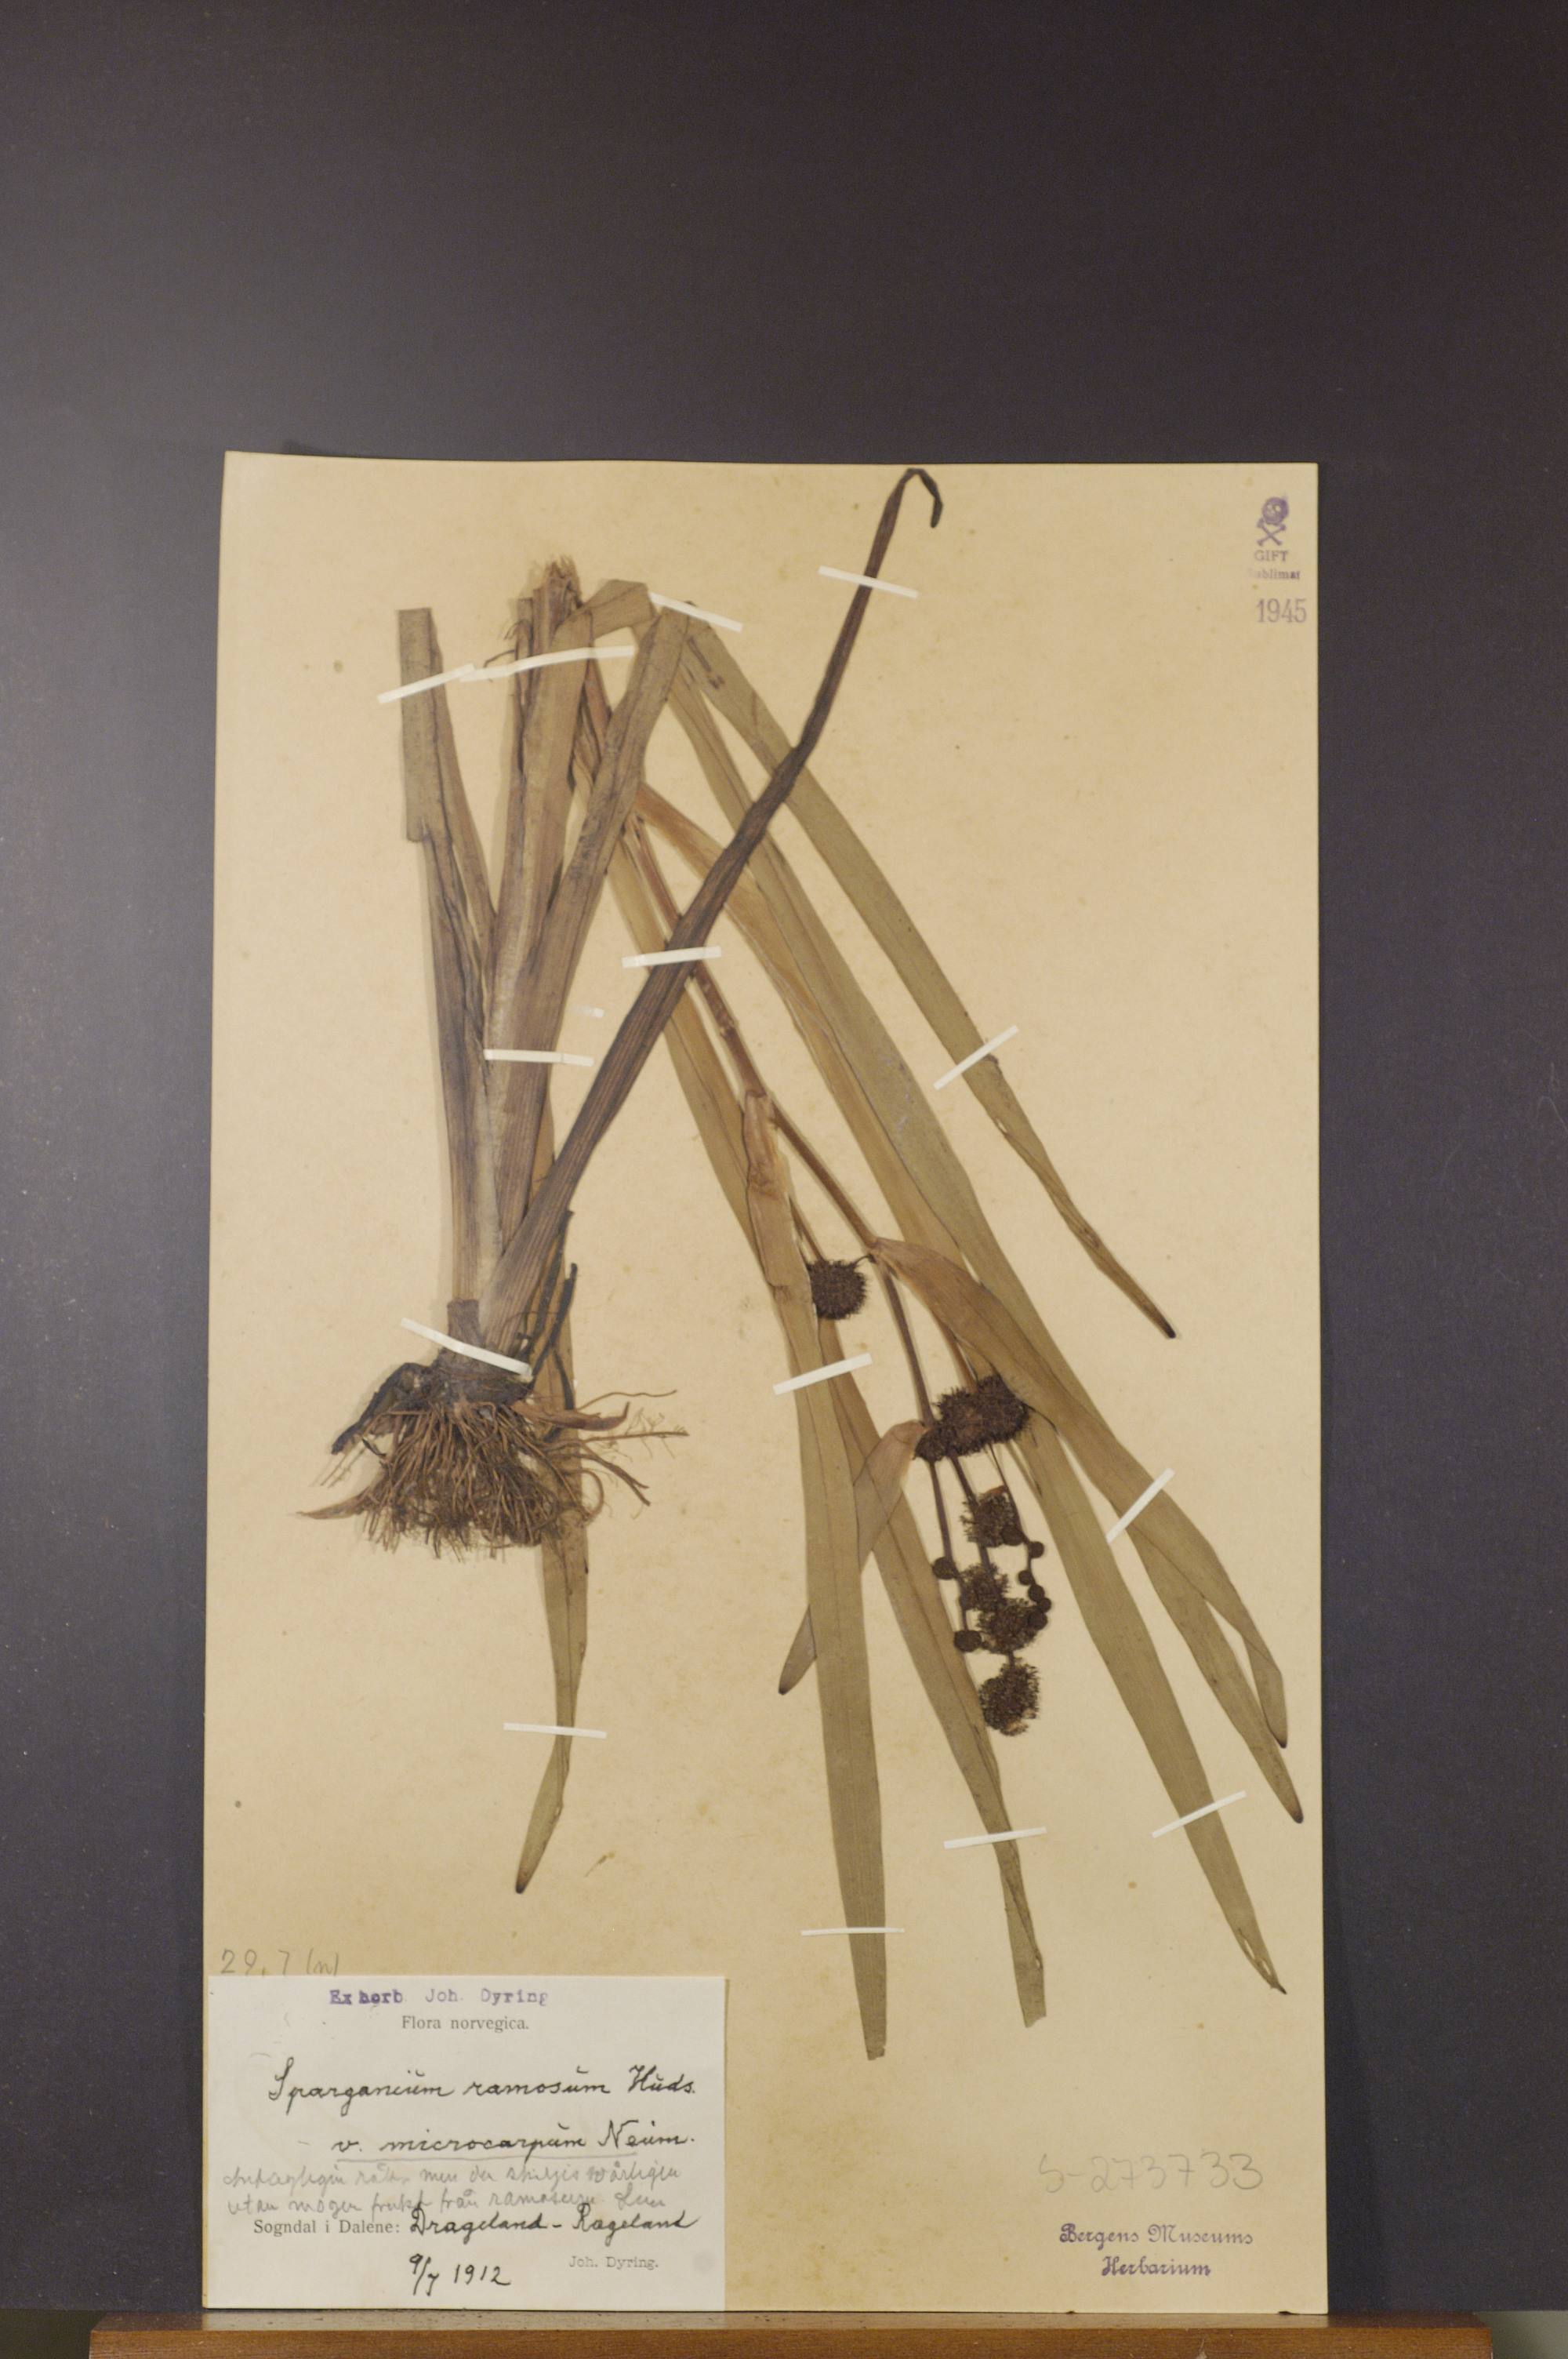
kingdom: Plantae
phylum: Tracheophyta
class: Liliopsida
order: Poales
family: Typhaceae
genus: Sparganium
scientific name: Sparganium erectum
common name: Branched bur-reed
